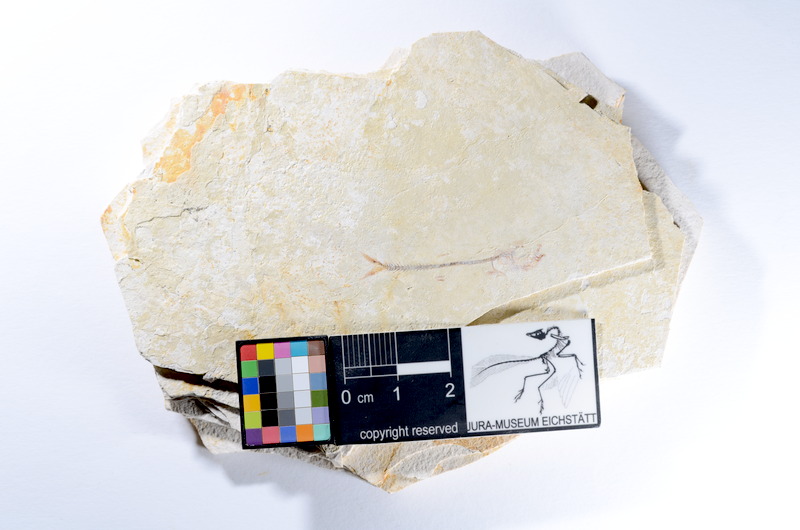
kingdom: Animalia
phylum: Chordata
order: Salmoniformes
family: Orthogonikleithridae
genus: Orthogonikleithrus
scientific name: Orthogonikleithrus hoelli
